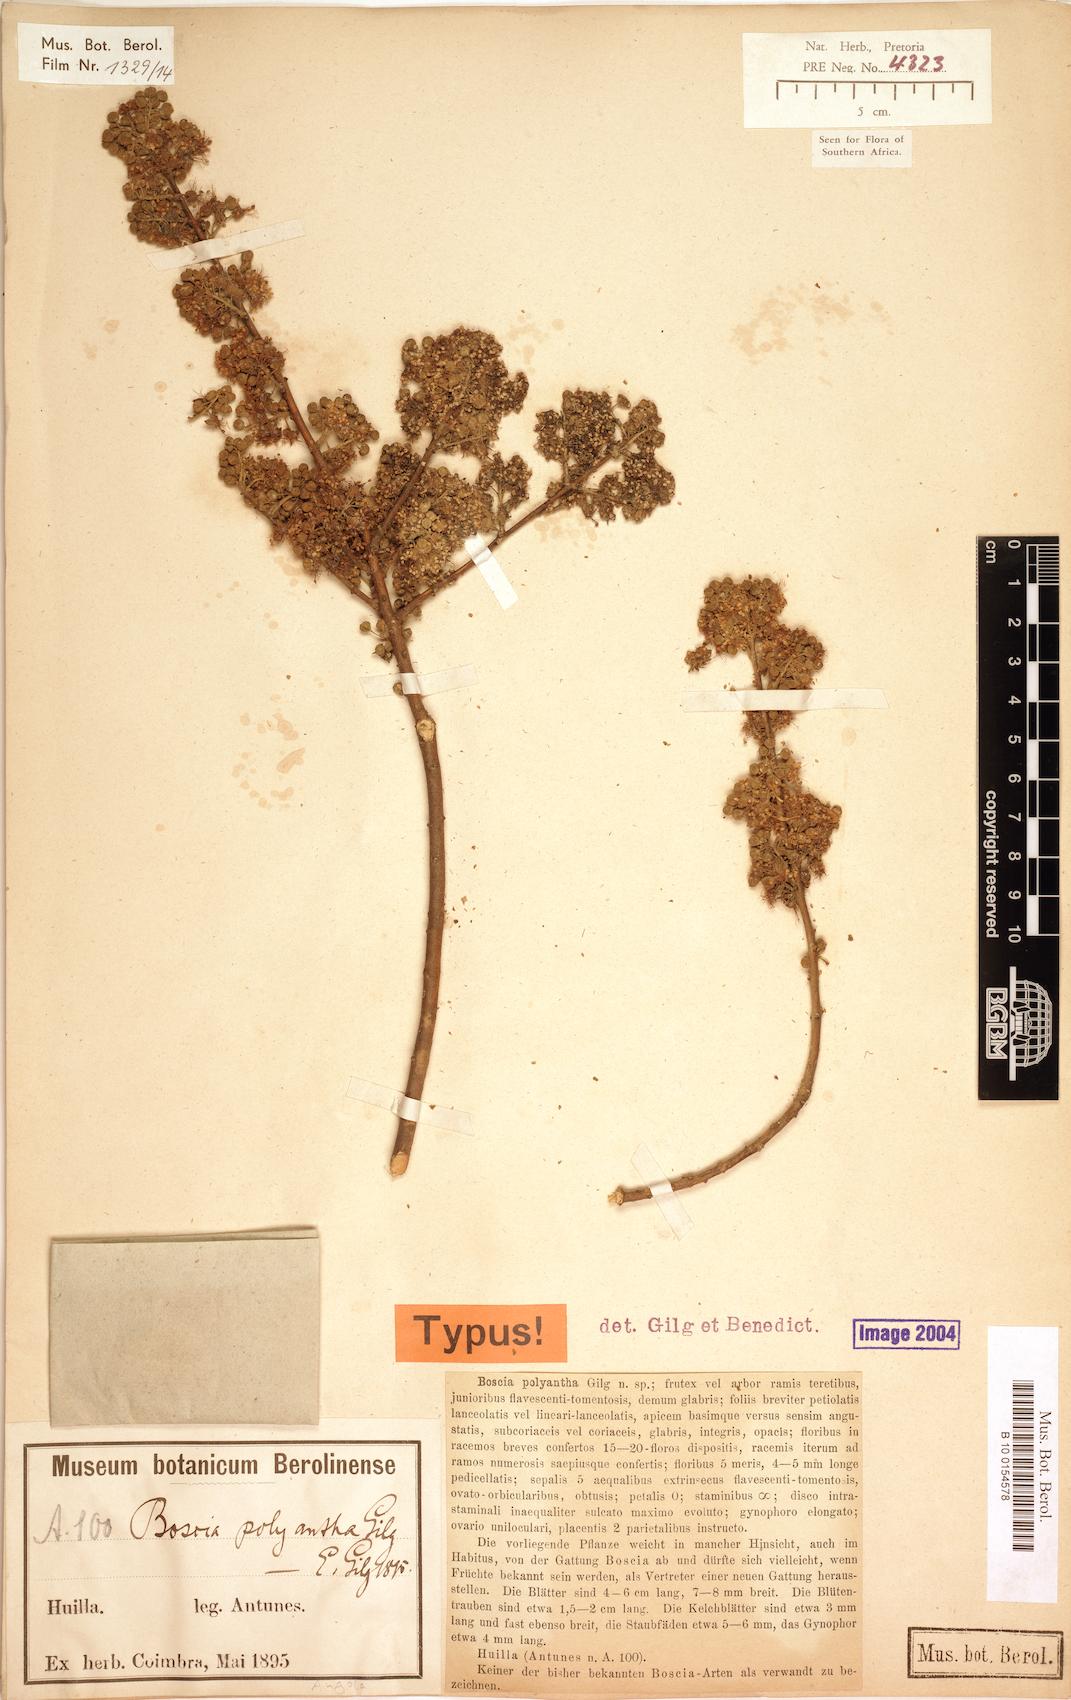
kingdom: Plantae
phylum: Tracheophyta
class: Magnoliopsida
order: Brassicales
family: Capparaceae
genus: Boscia
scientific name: Boscia polyantha
